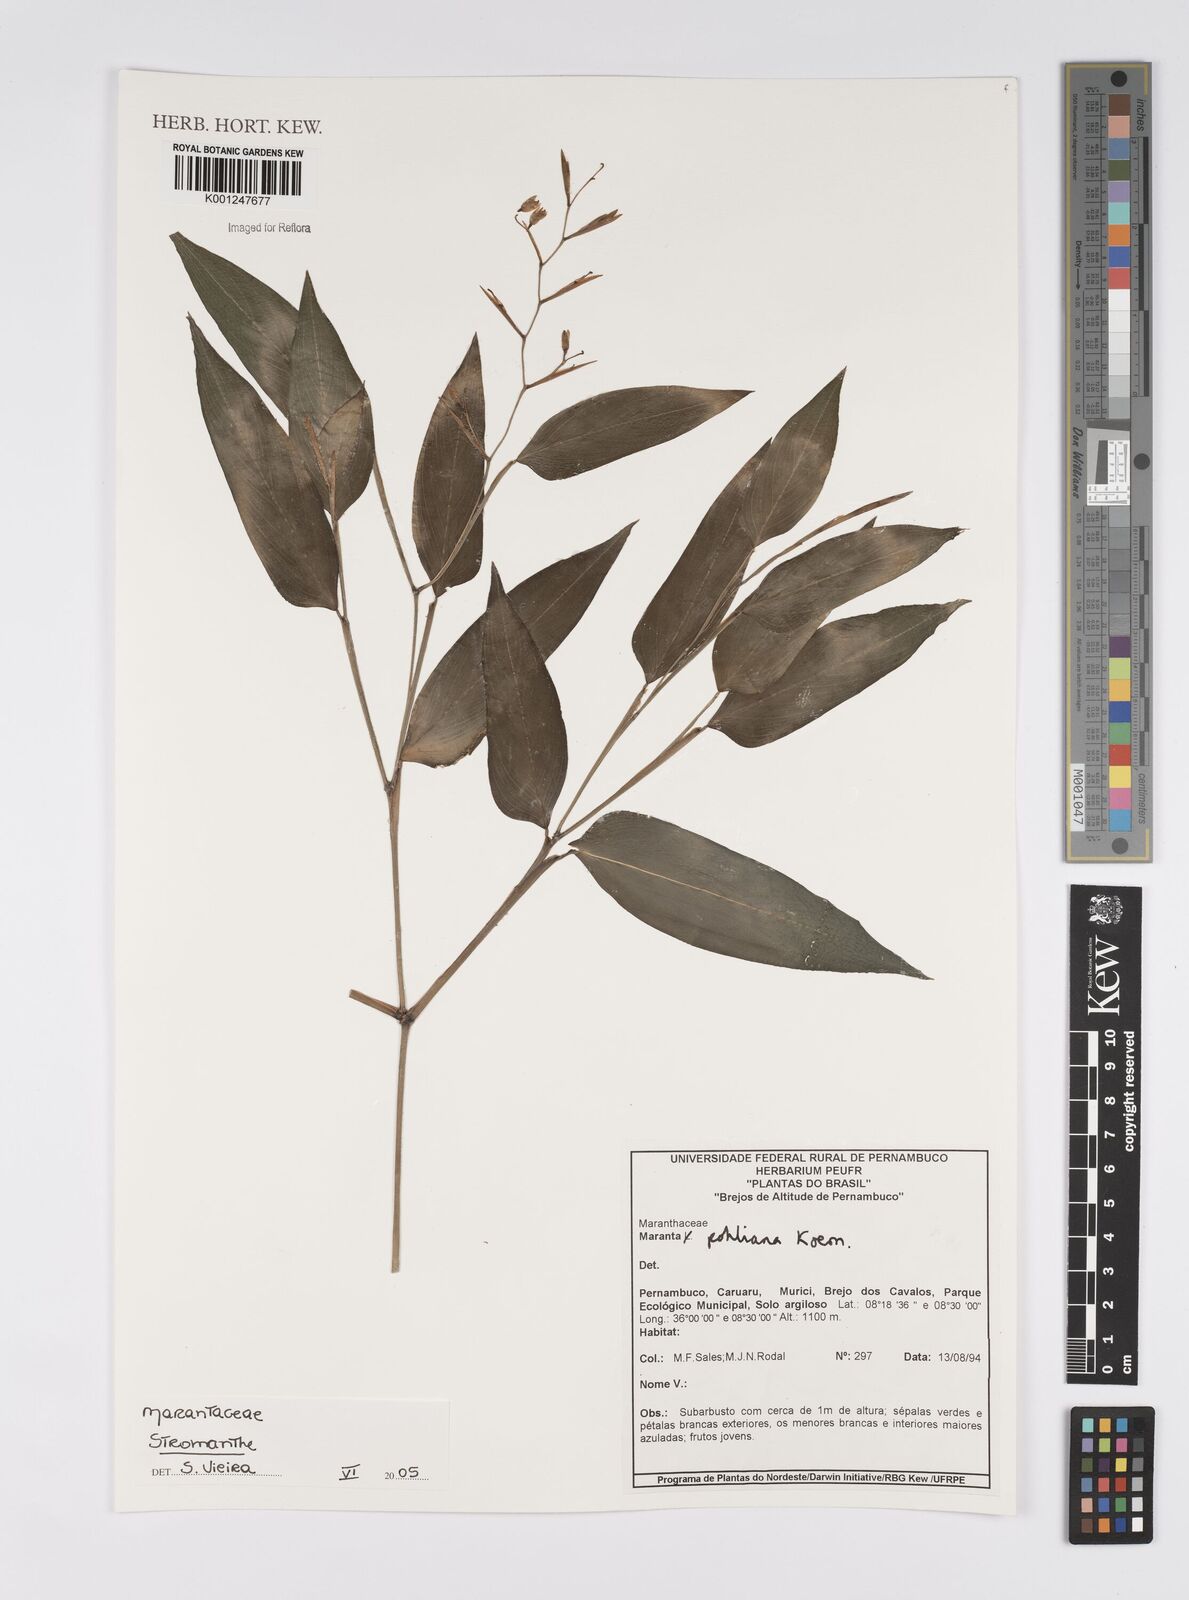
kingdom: Plantae
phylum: Tracheophyta
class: Liliopsida
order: Zingiberales
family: Marantaceae
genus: Stromanthe
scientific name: Stromanthe
